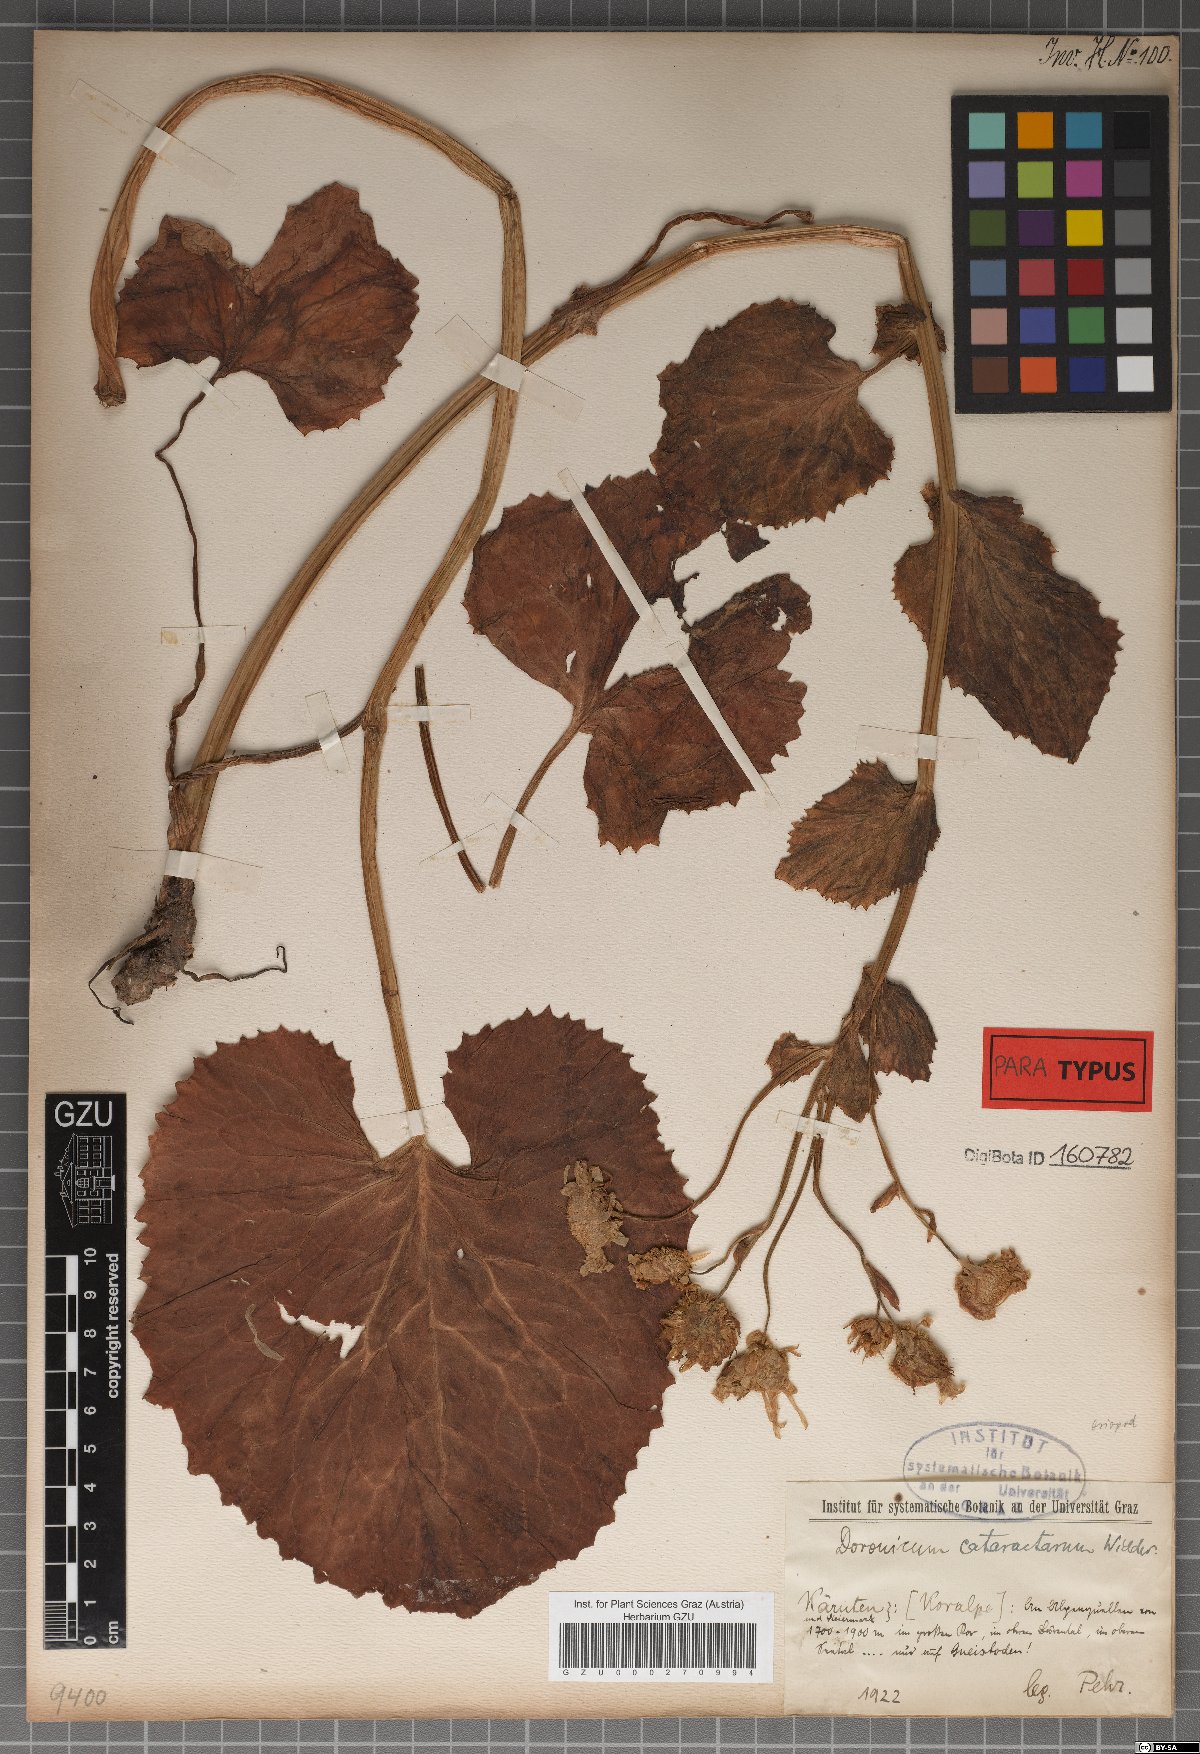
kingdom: Plantae
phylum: Tracheophyta
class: Magnoliopsida
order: Asterales
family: Asteraceae
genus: Doronicum
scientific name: Doronicum cataractarum
